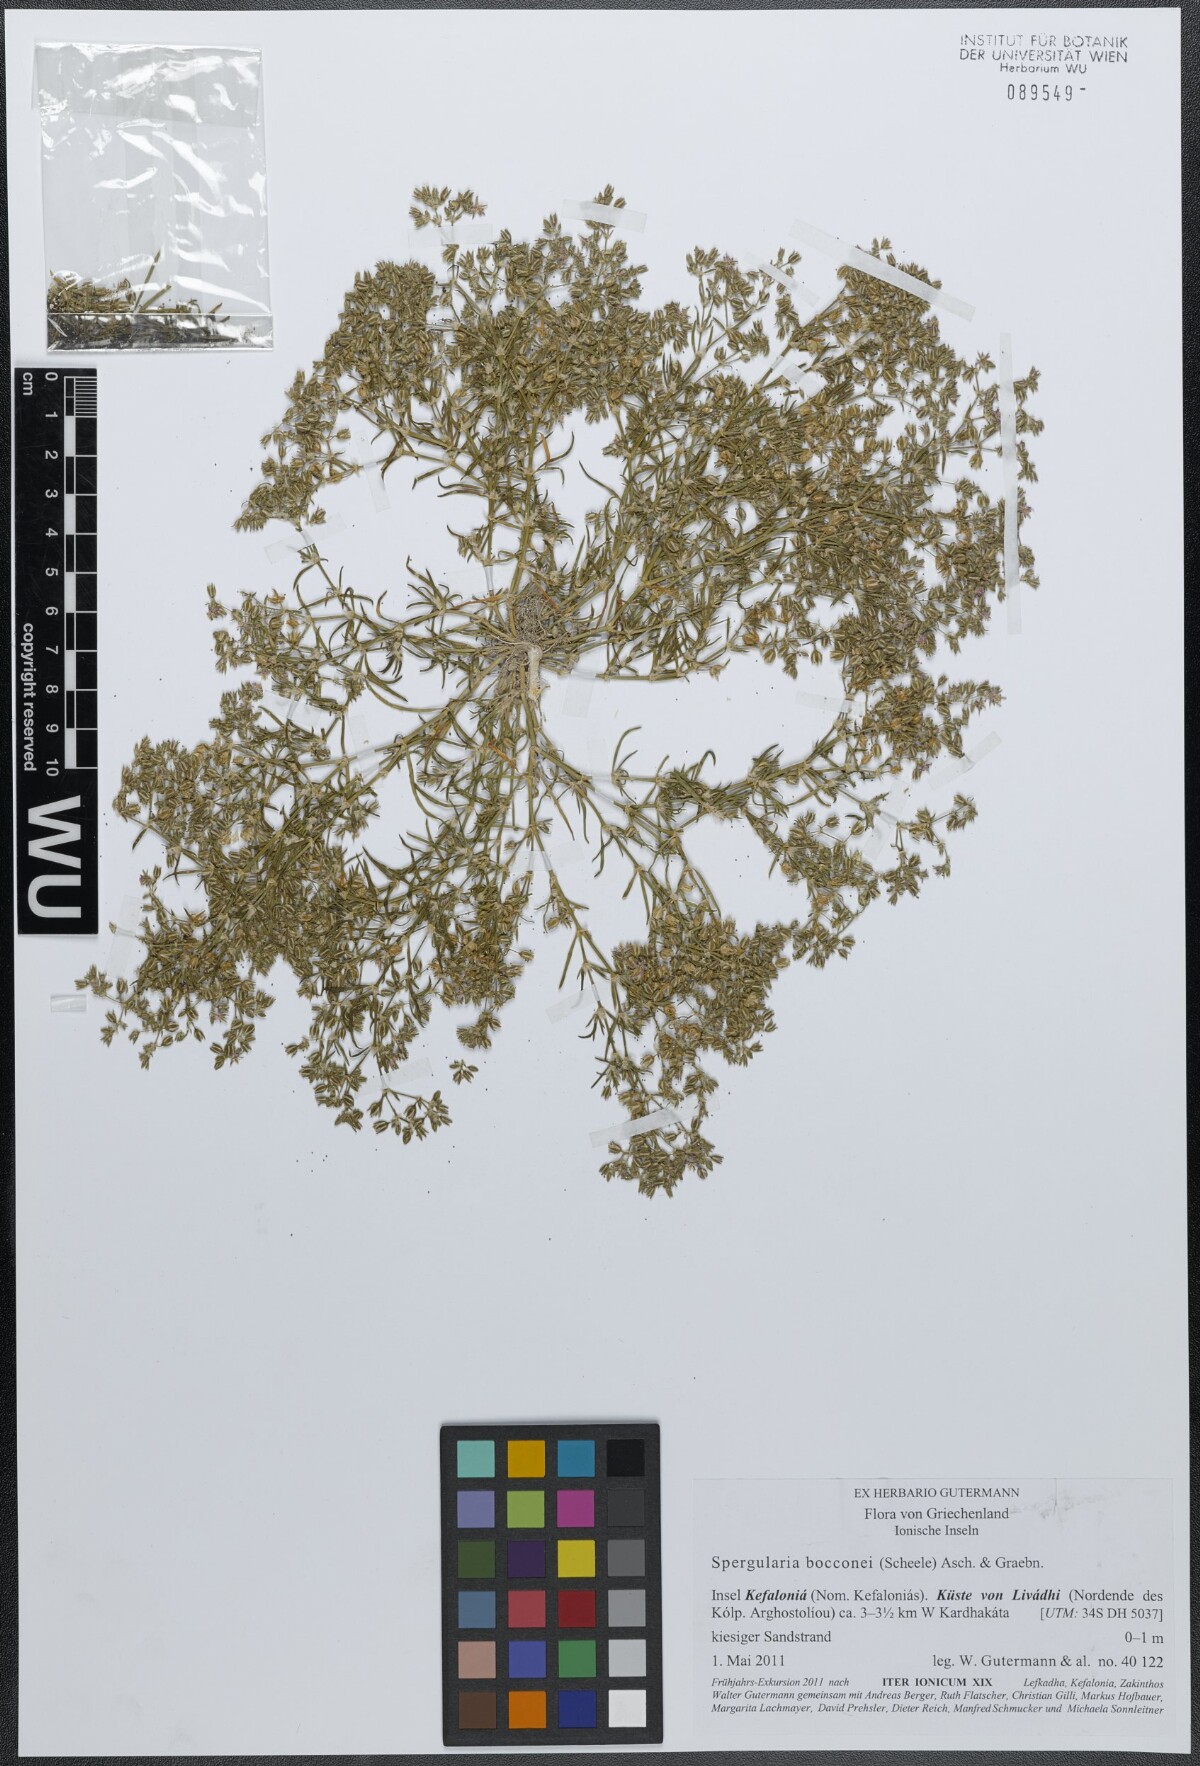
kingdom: Plantae
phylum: Tracheophyta
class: Magnoliopsida
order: Caryophyllales
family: Caryophyllaceae
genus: Spergularia
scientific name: Spergularia bocconei
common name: Greek sea-spurrey
